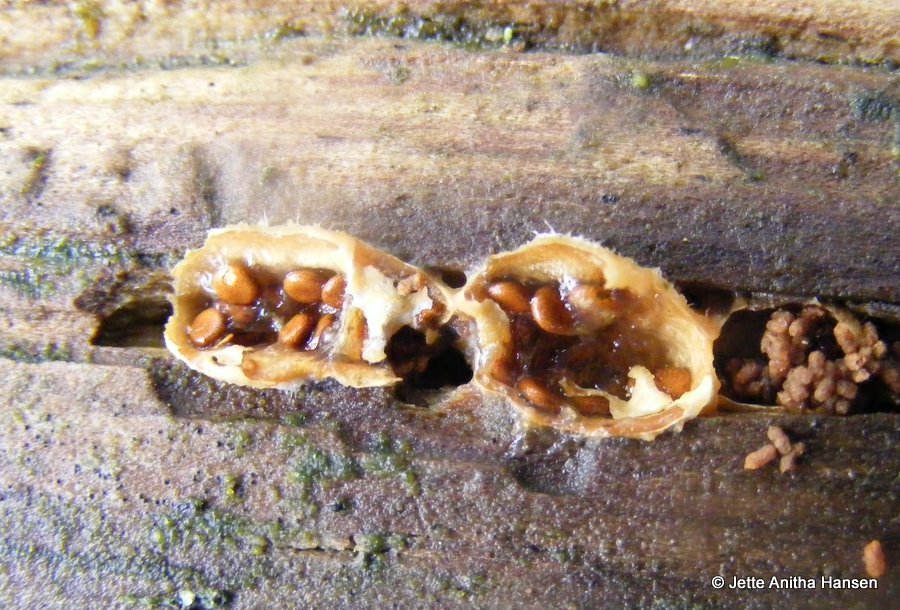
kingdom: Fungi
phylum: Basidiomycota
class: Agaricomycetes
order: Agaricales
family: Agaricaceae
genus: Nidularia
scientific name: Nidularia deformis
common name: pudesvamp
